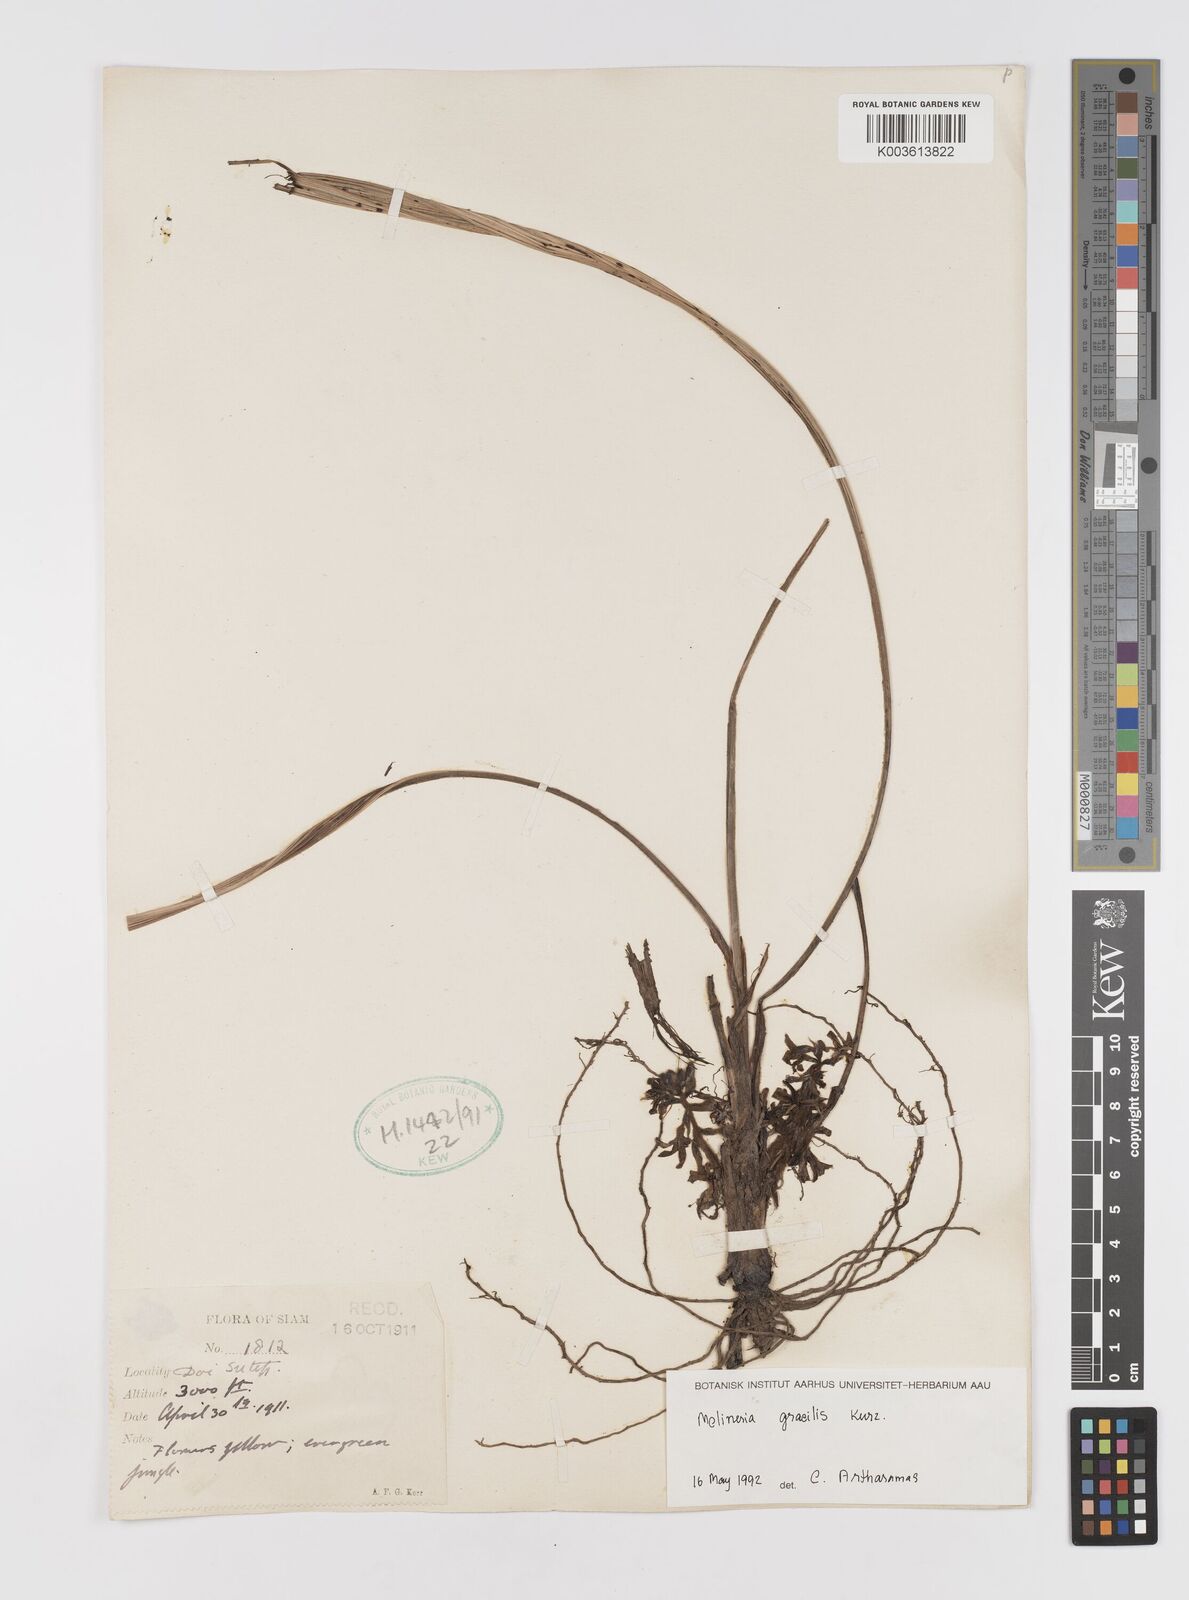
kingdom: Plantae
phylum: Tracheophyta
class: Liliopsida
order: Asparagales
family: Hypoxidaceae
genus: Curculigo
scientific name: Curculigo gracilis
